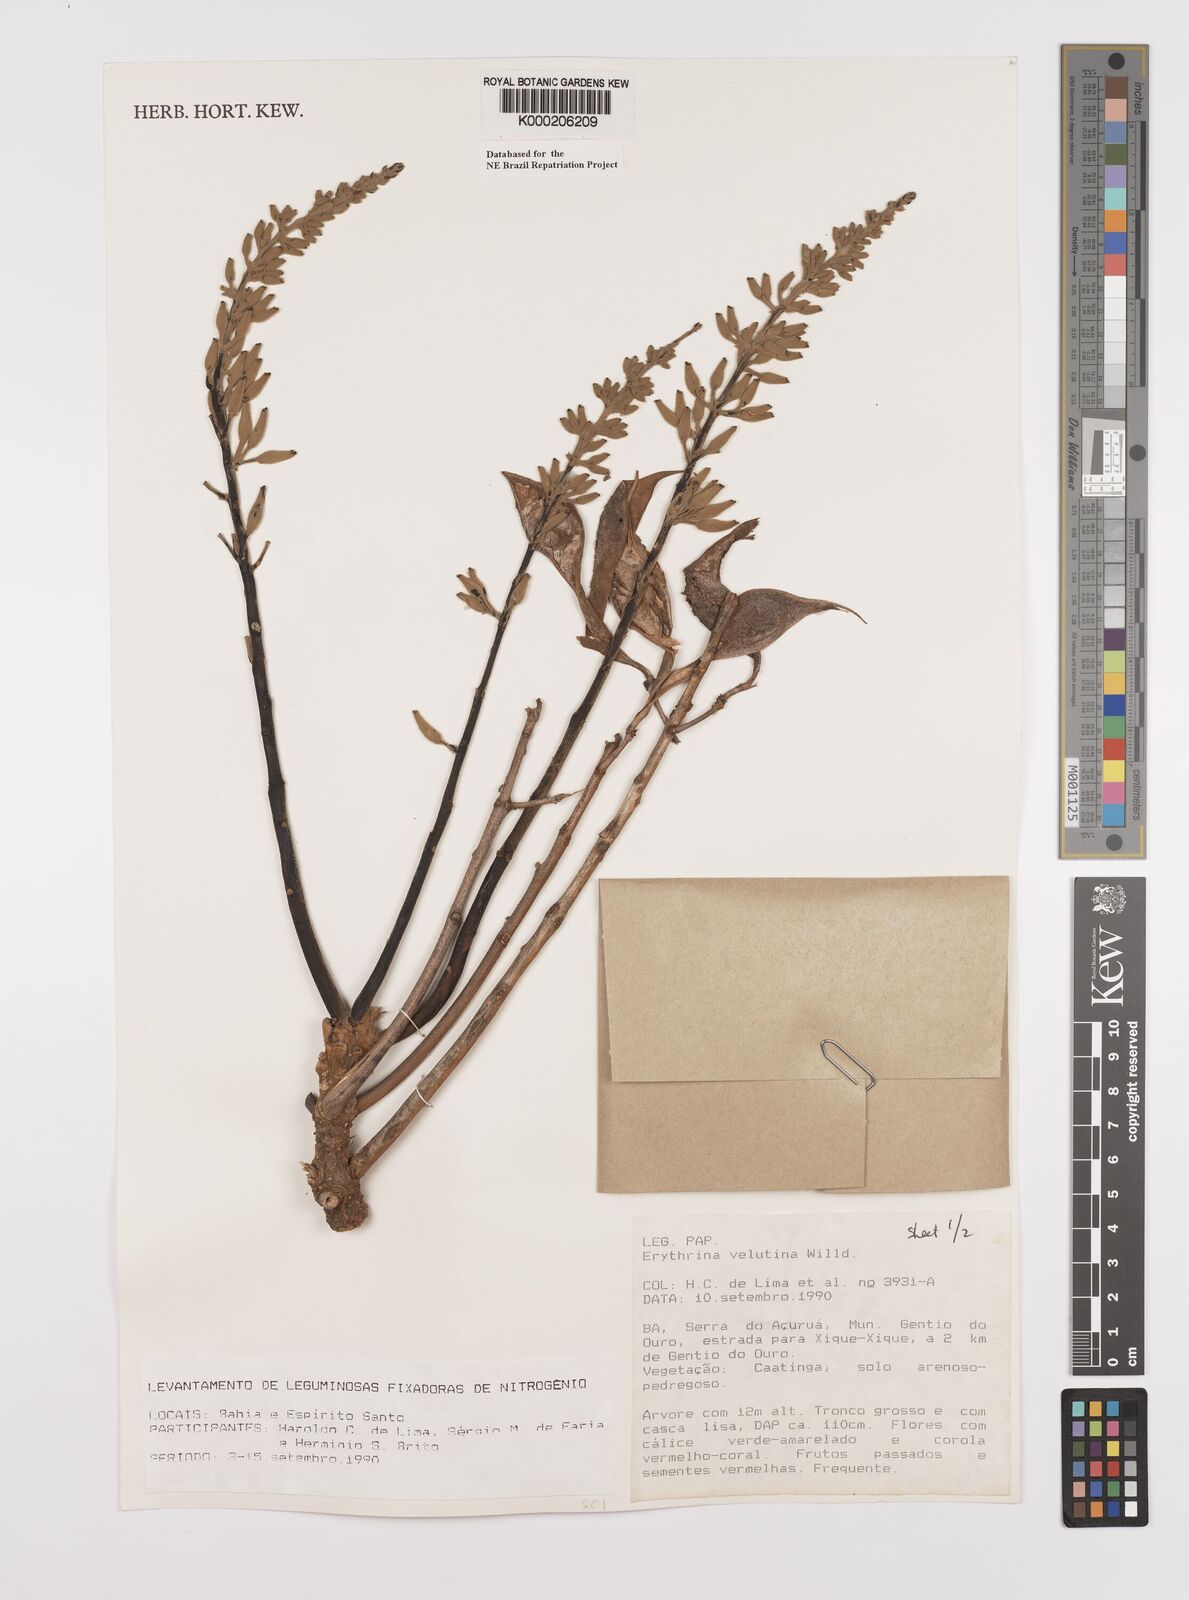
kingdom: Plantae
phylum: Tracheophyta
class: Magnoliopsida
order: Fabales
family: Fabaceae
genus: Erythrina
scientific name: Erythrina velutina
